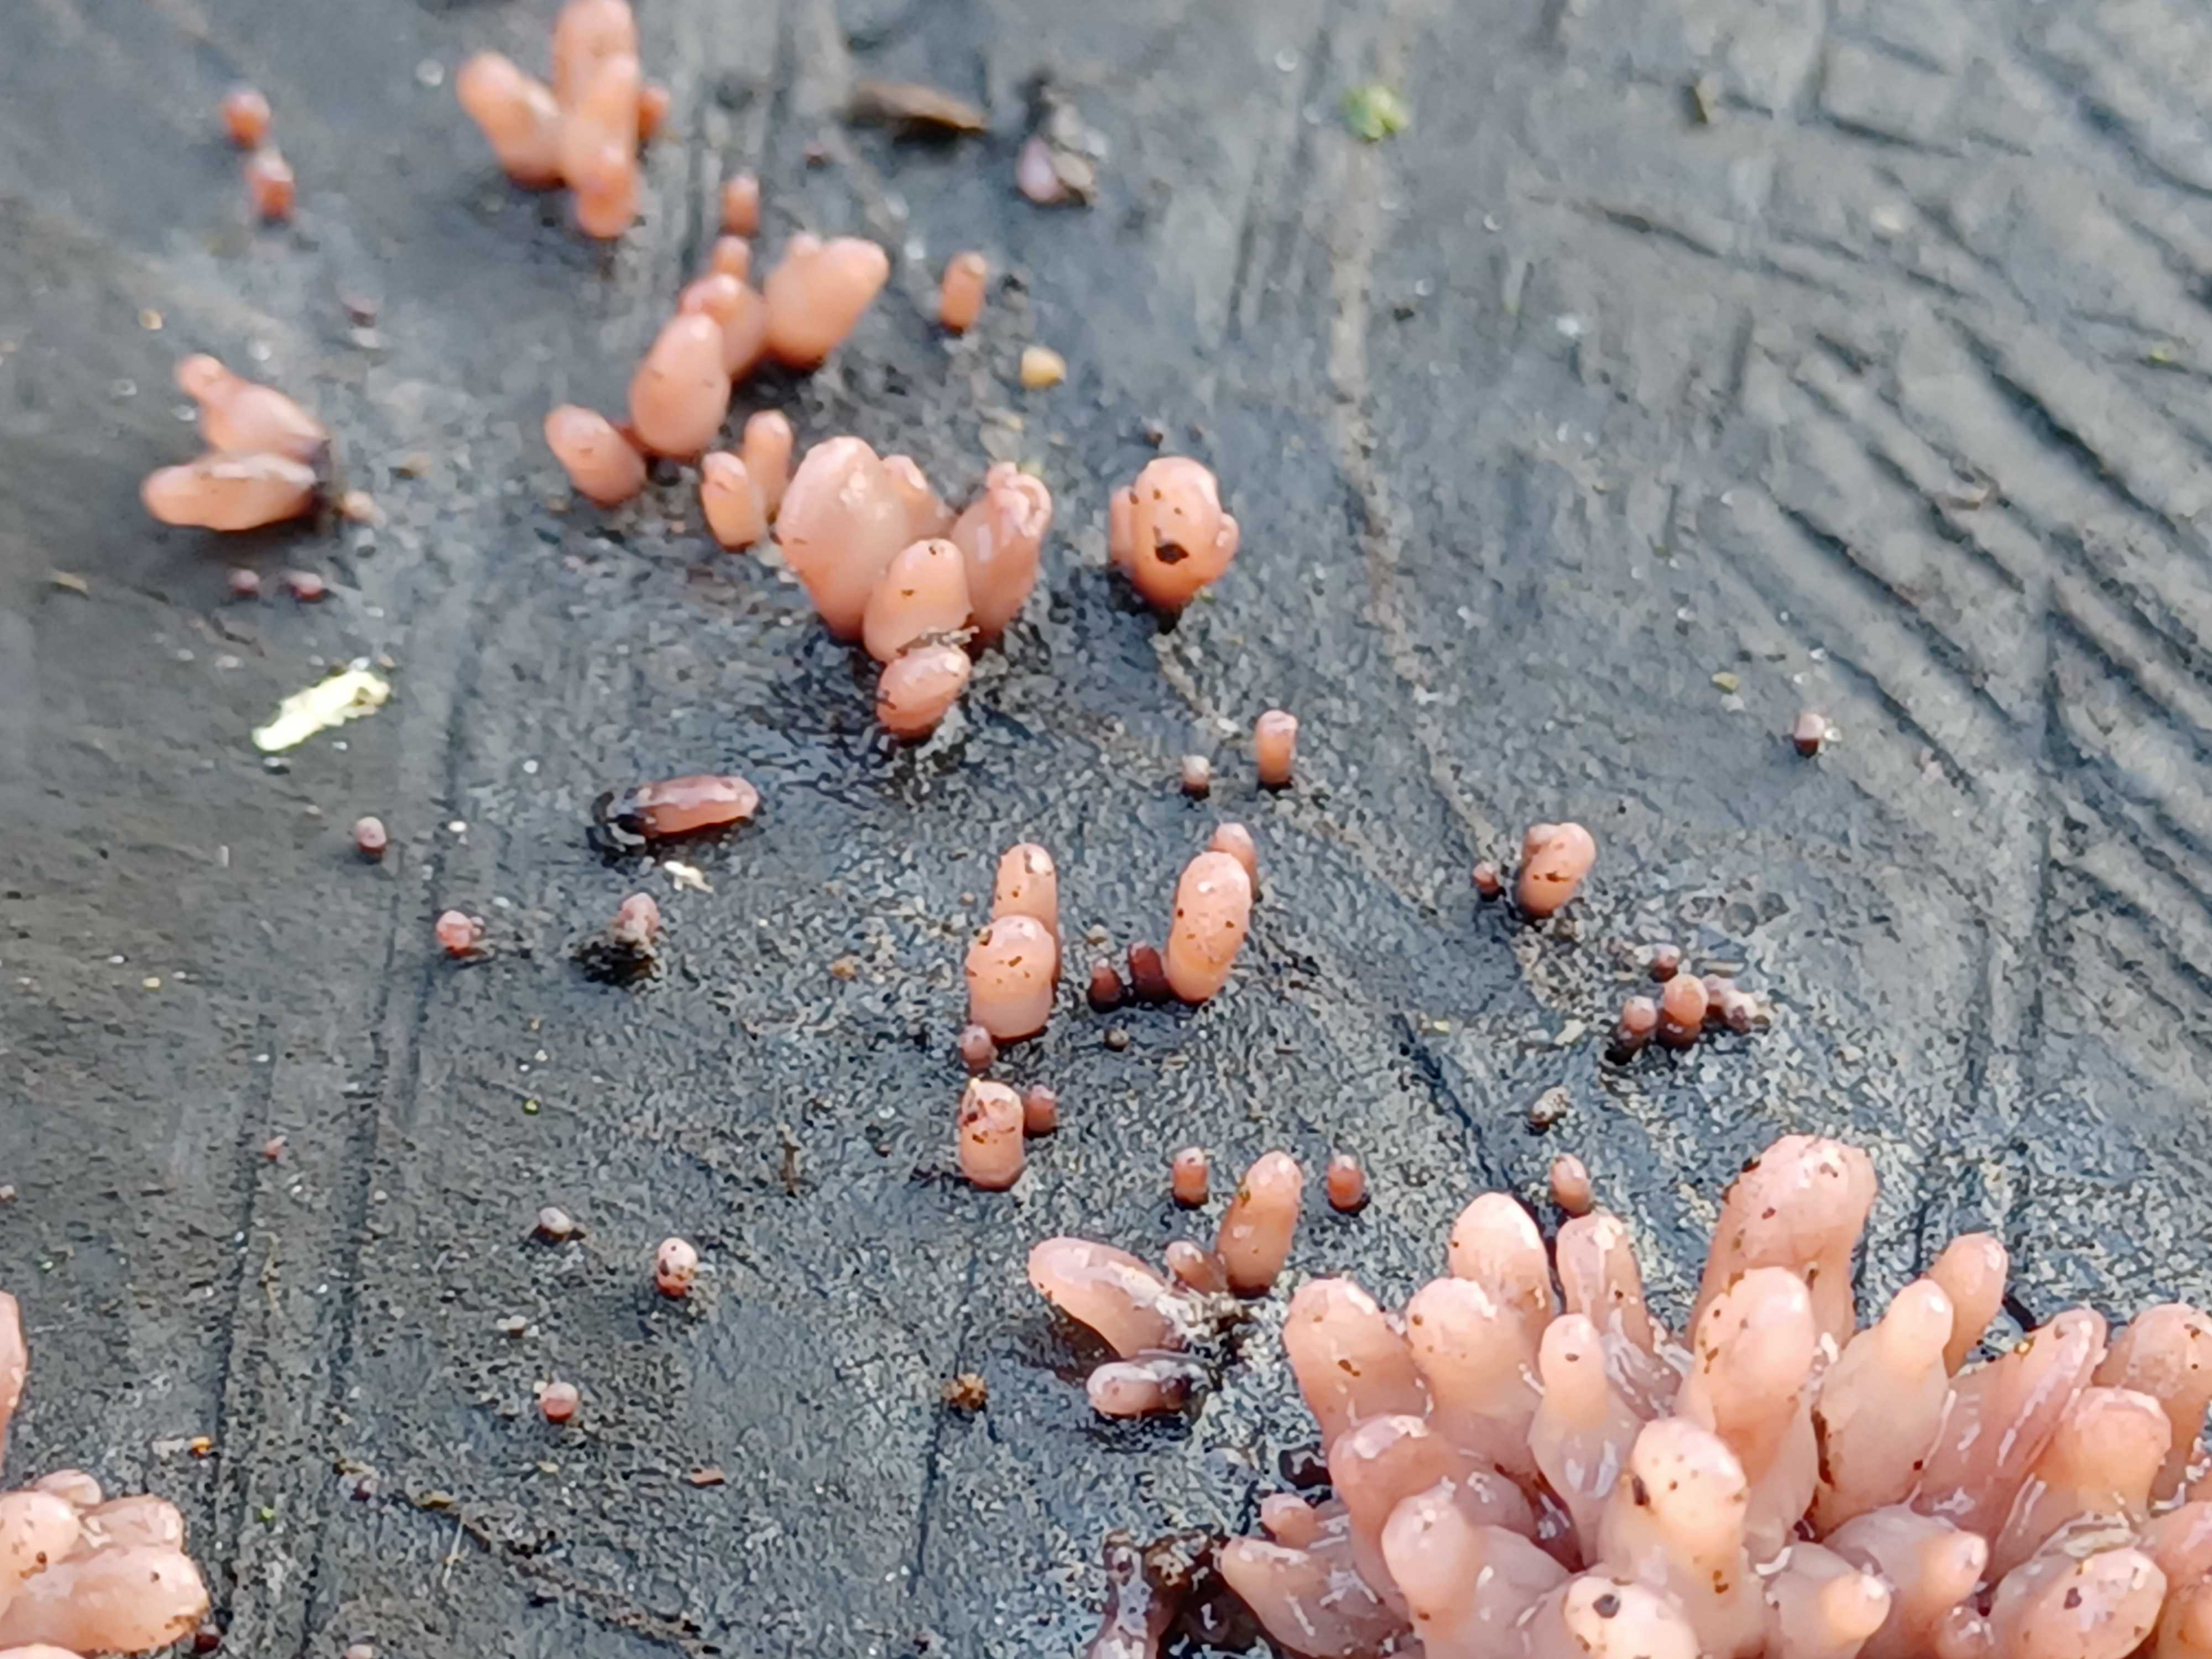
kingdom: Fungi
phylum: Ascomycota
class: Leotiomycetes
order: Helotiales
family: Gelatinodiscaceae
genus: Ascocoryne
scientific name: Ascocoryne sarcoides
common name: rødlilla sejskive
